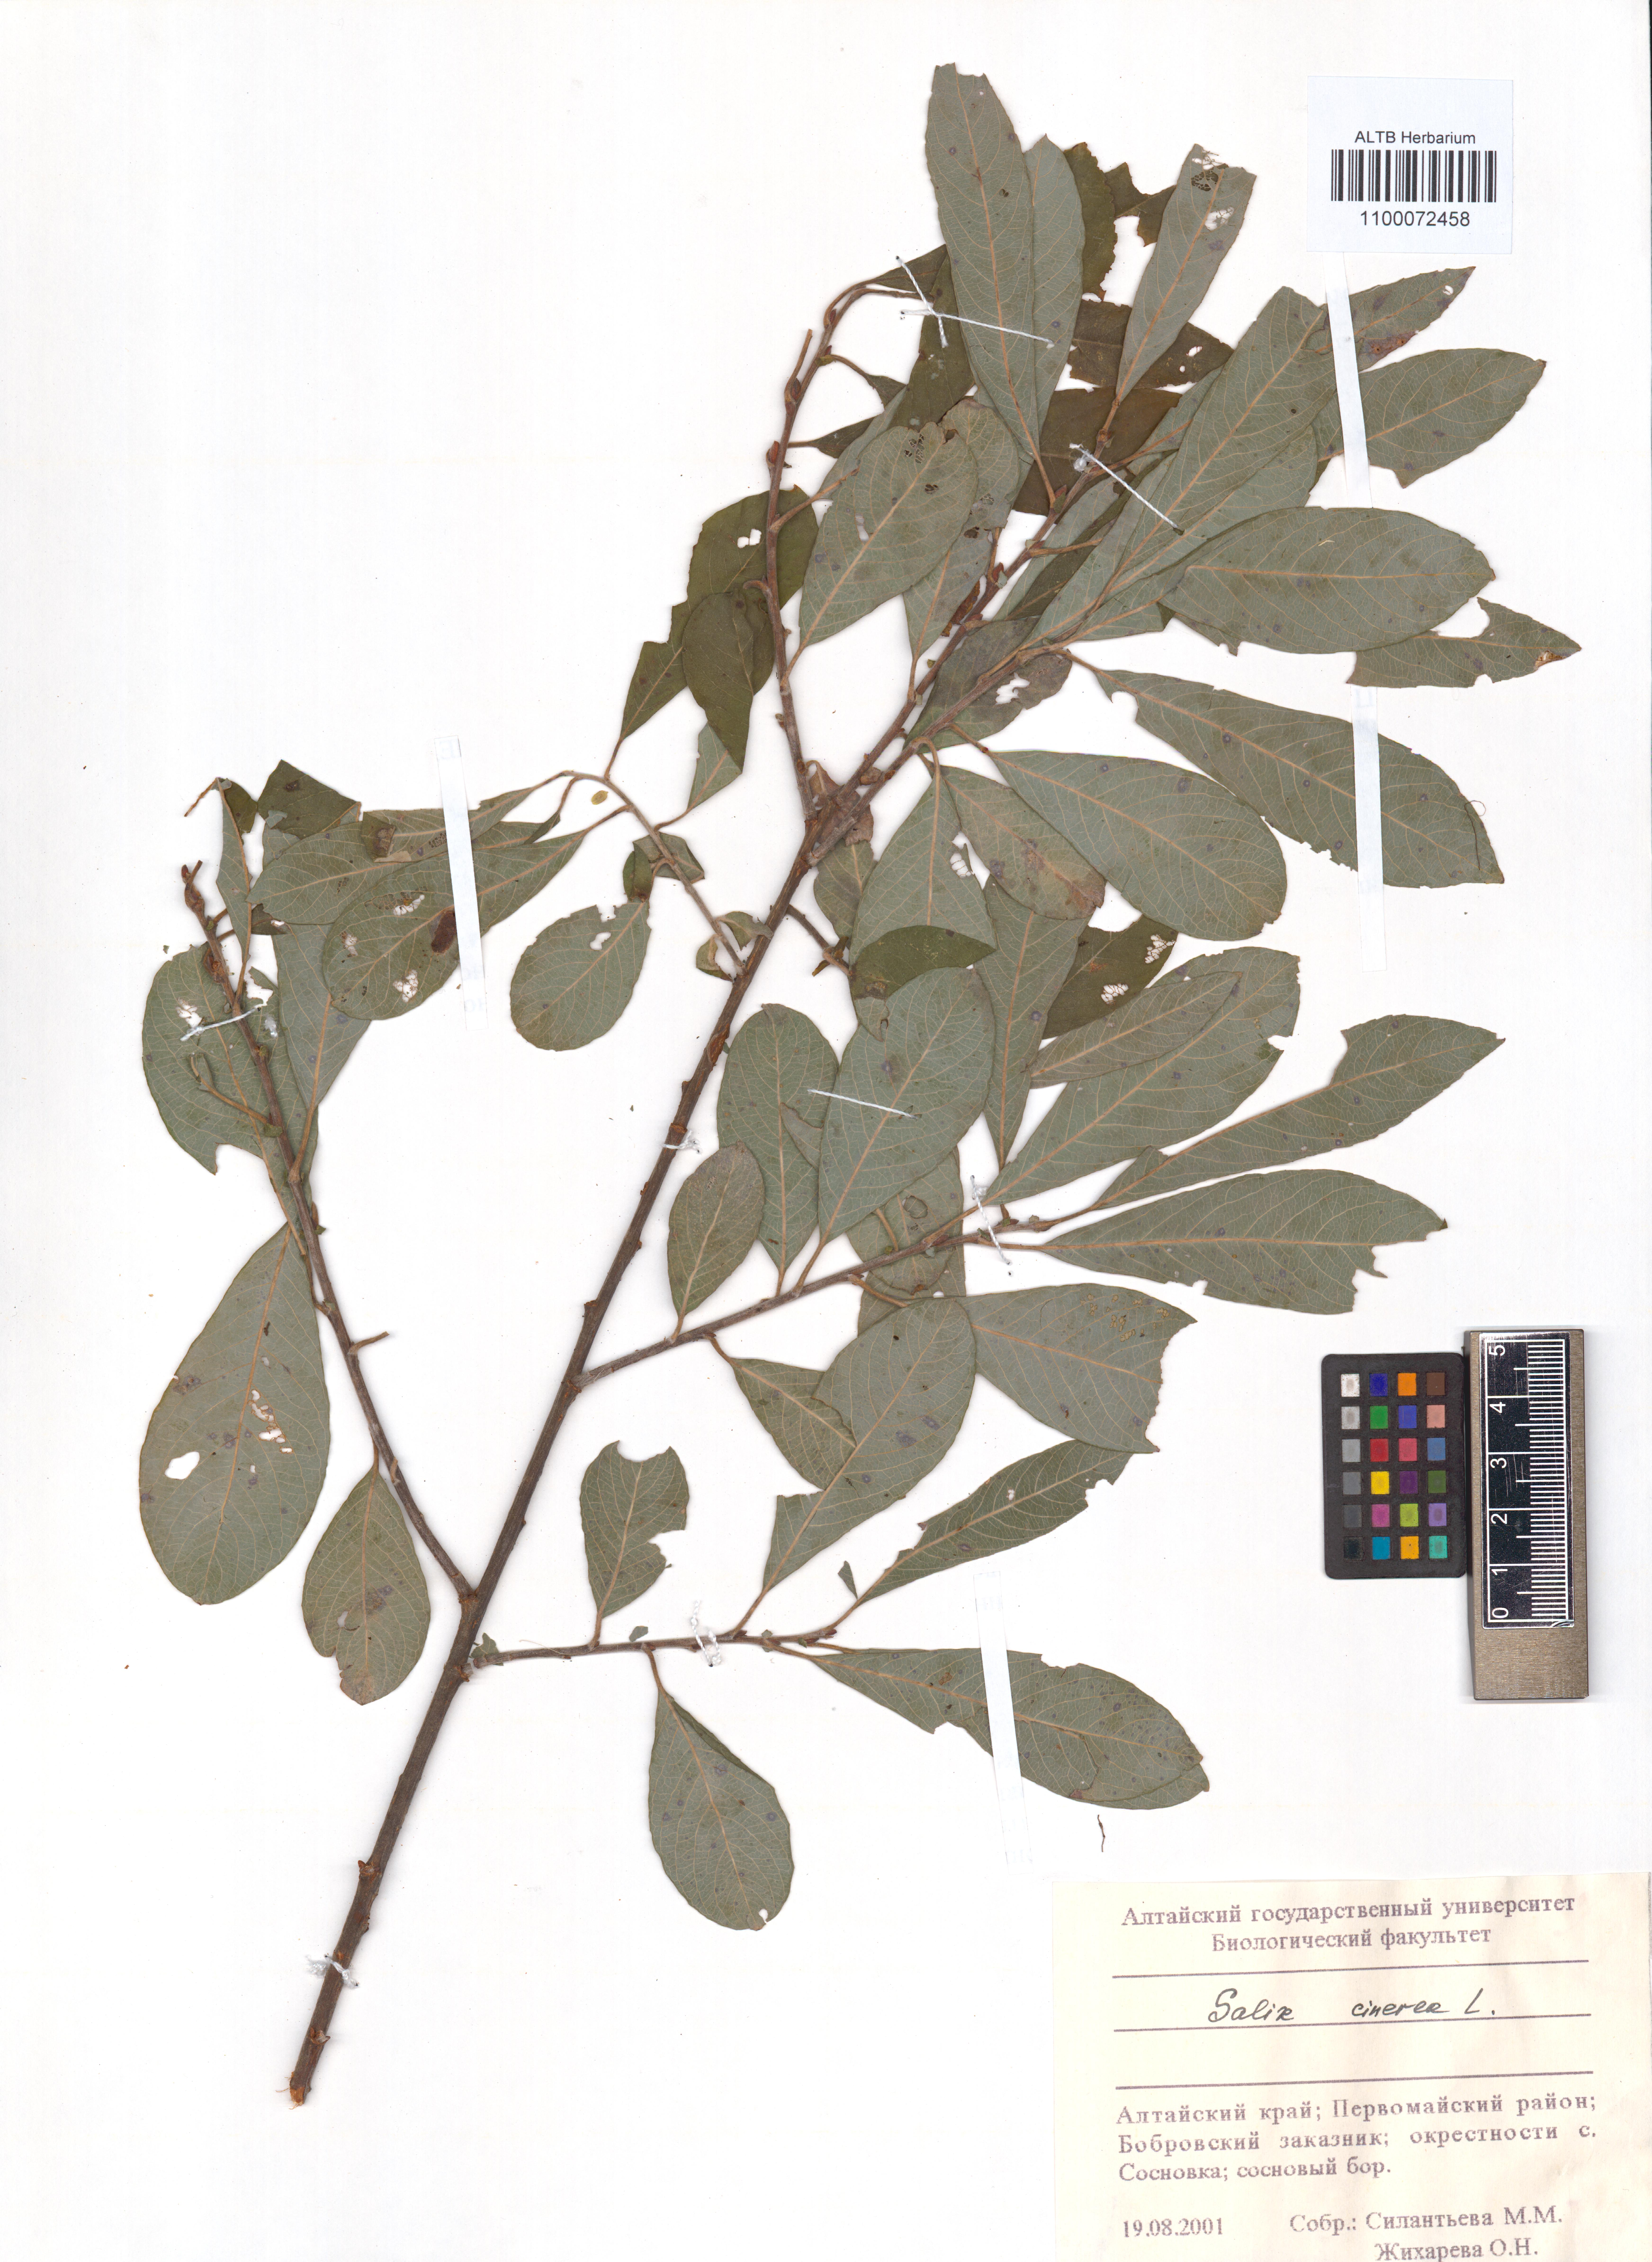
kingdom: Plantae
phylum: Tracheophyta
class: Magnoliopsida
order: Malpighiales
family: Salicaceae
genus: Salix
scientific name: Salix cinerea
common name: Common sallow
